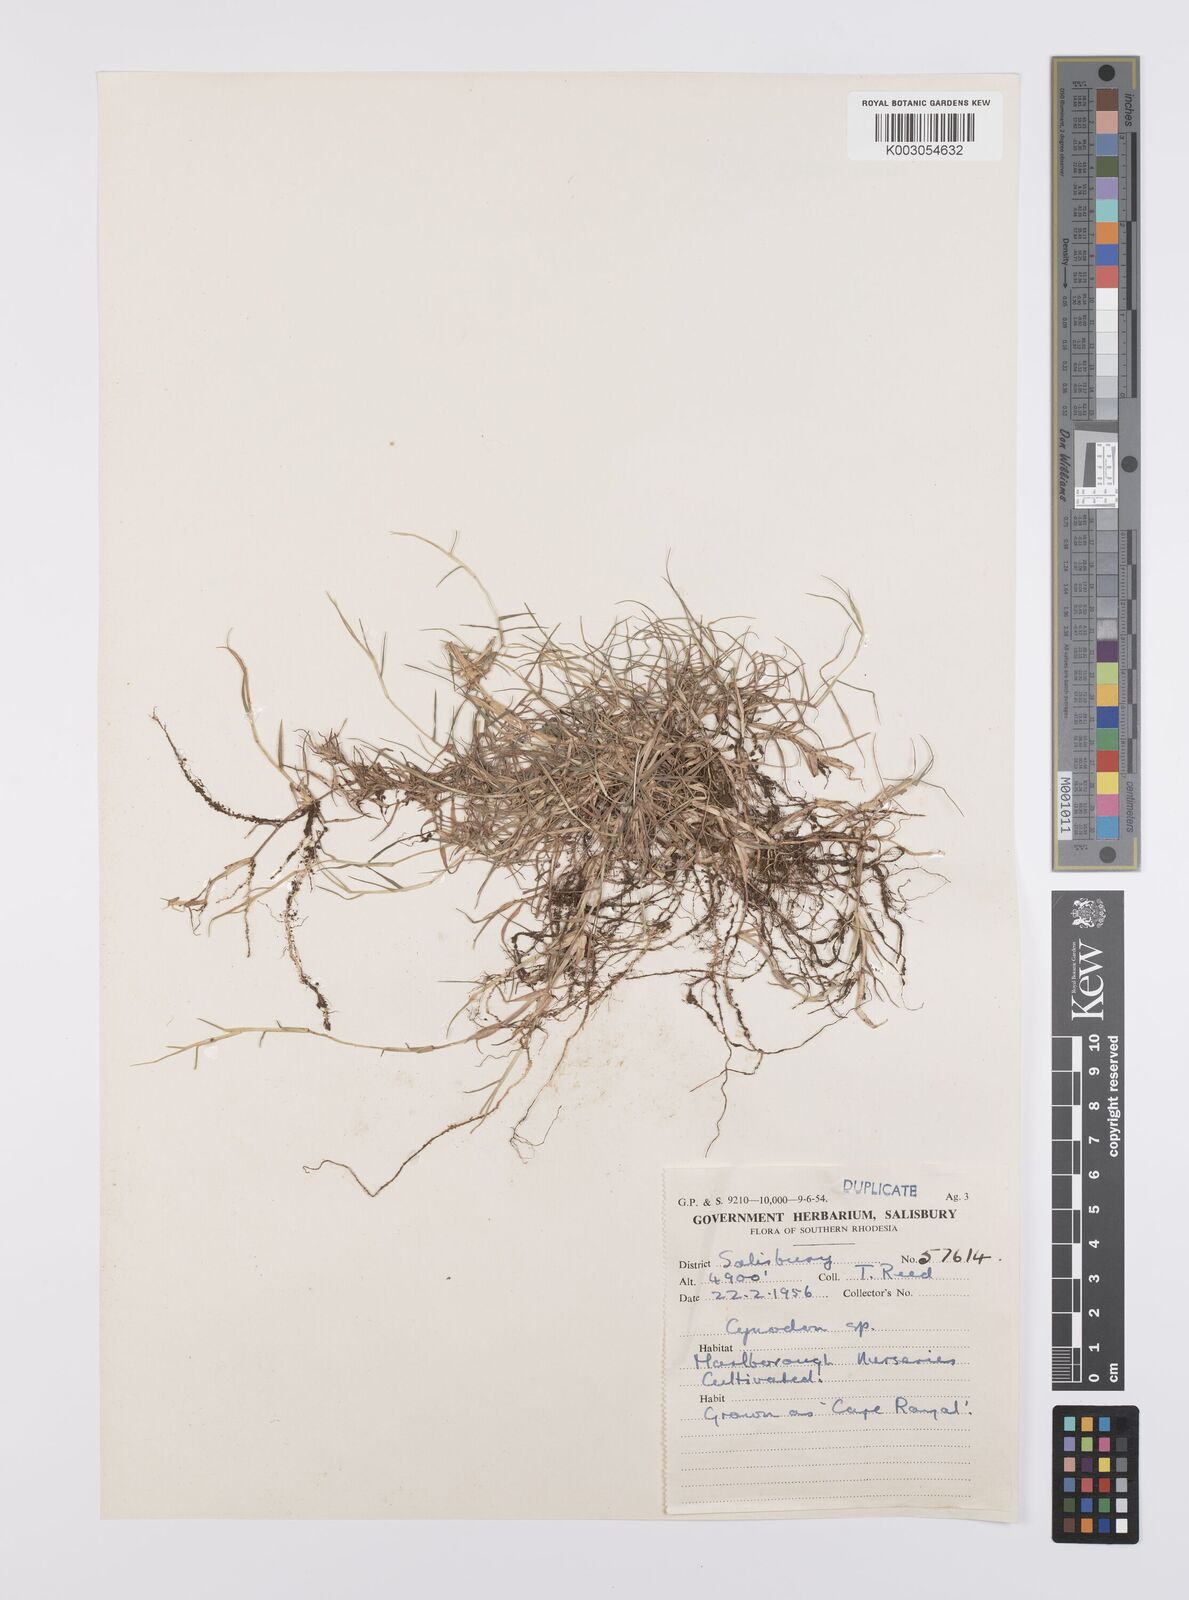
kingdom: Plantae
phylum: Tracheophyta
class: Liliopsida
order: Poales
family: Poaceae
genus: Cynodon
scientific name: Cynodon dactylon
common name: Bermuda grass
